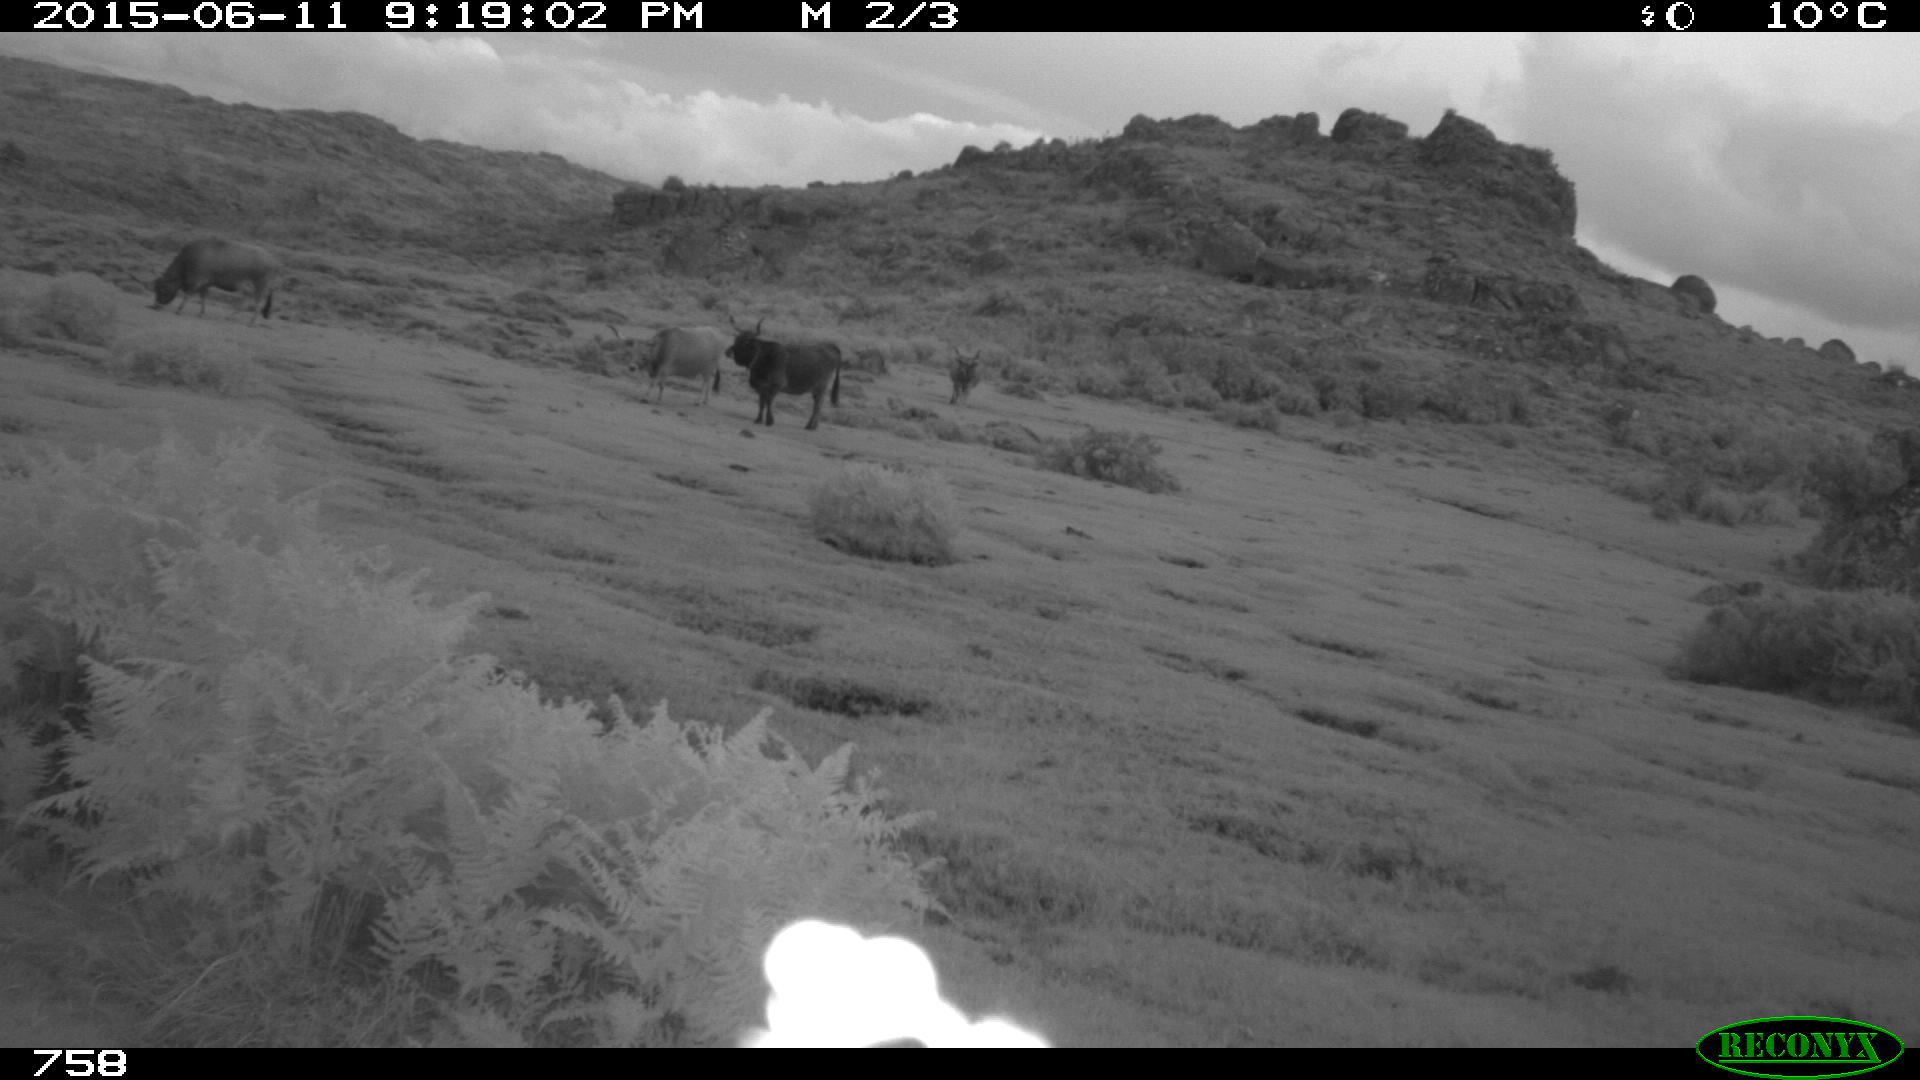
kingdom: Animalia
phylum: Chordata
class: Mammalia
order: Artiodactyla
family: Bovidae
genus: Bos
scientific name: Bos taurus
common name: Domesticated cattle
